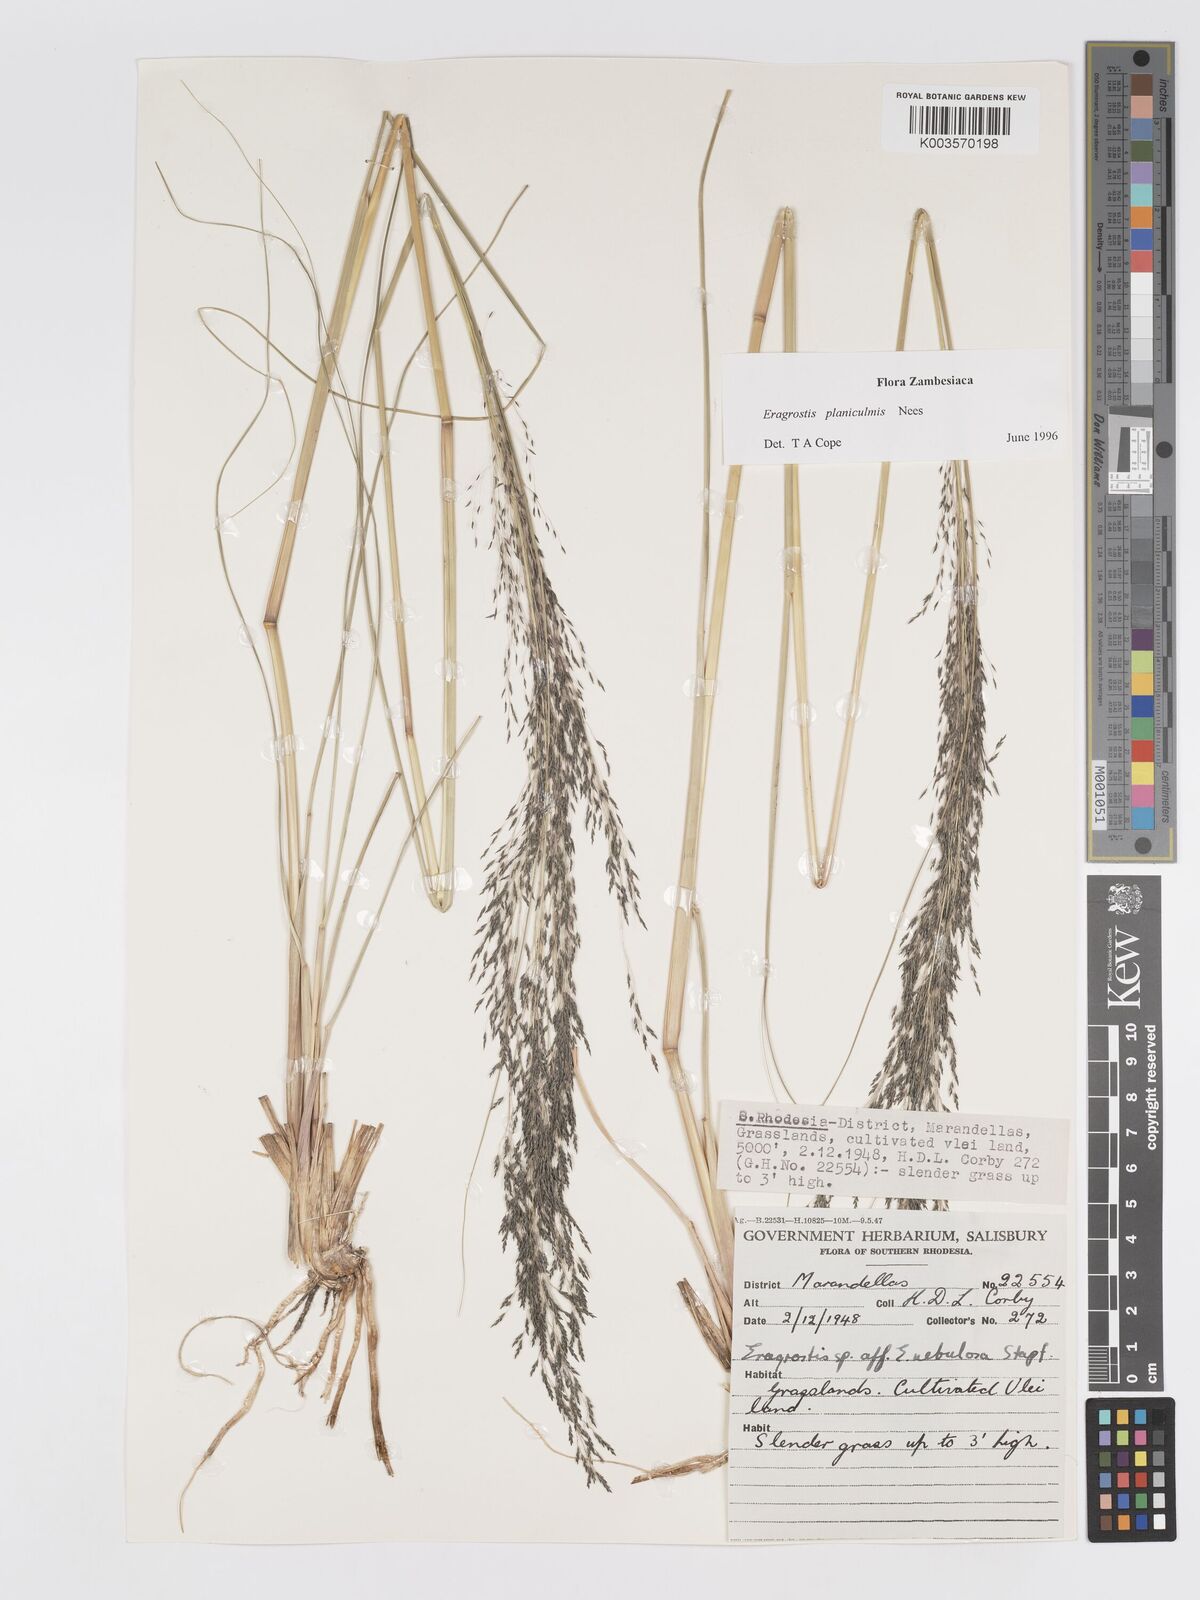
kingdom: Plantae
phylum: Tracheophyta
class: Liliopsida
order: Poales
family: Poaceae
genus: Eragrostis
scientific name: Eragrostis planiculmis
